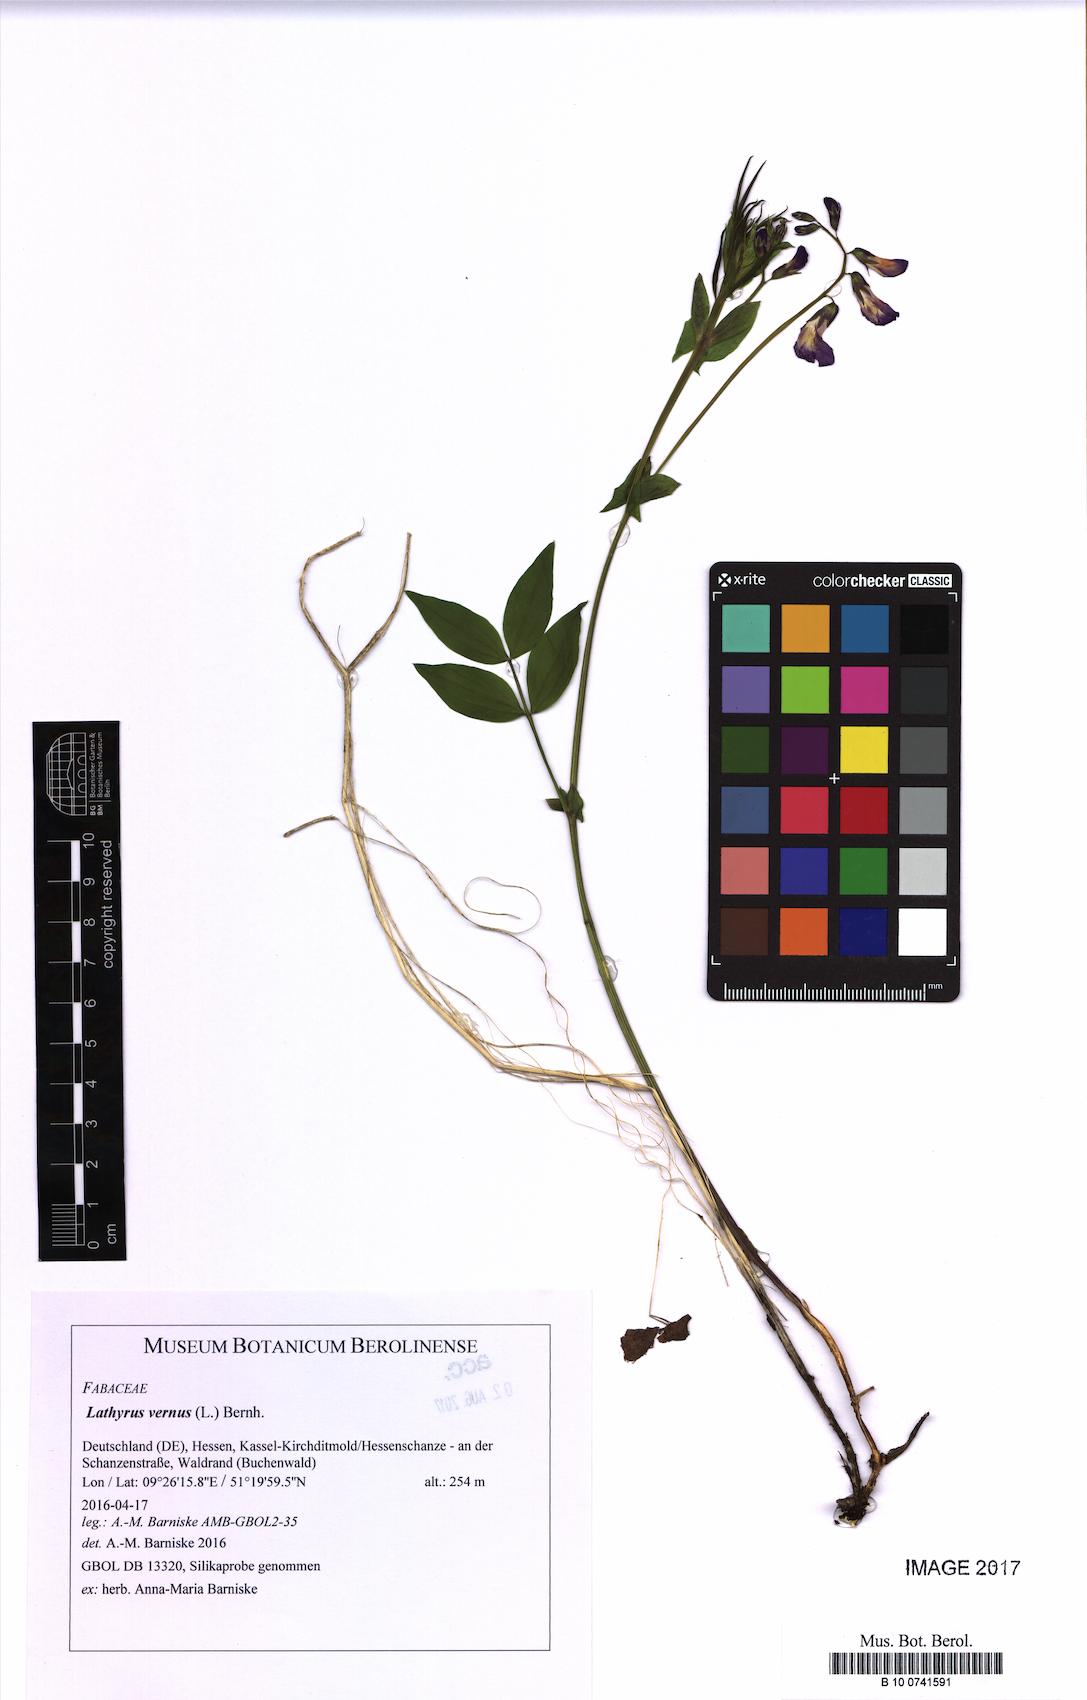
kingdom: Plantae
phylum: Tracheophyta
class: Magnoliopsida
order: Fabales
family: Fabaceae
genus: Lathyrus
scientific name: Lathyrus vernus
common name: Spring pea
